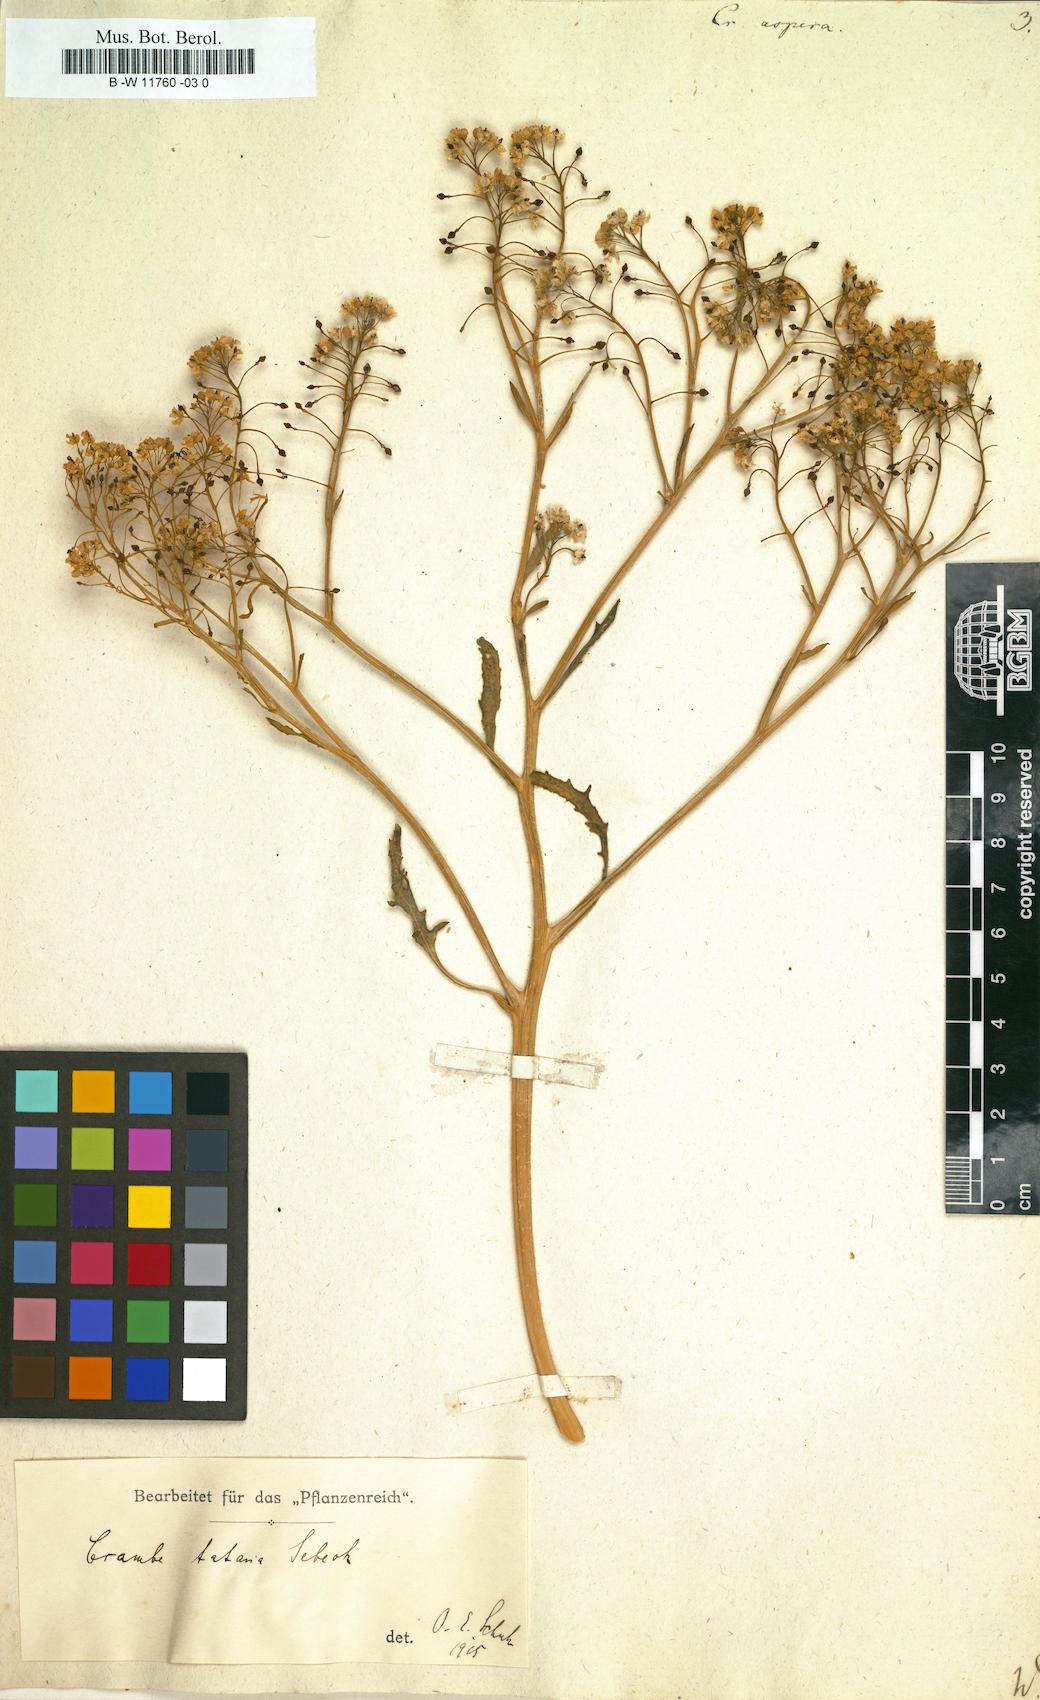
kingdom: Plantae
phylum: Tracheophyta
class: Magnoliopsida
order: Brassicales
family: Brassicaceae
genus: Crambe
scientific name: Crambe aspera
